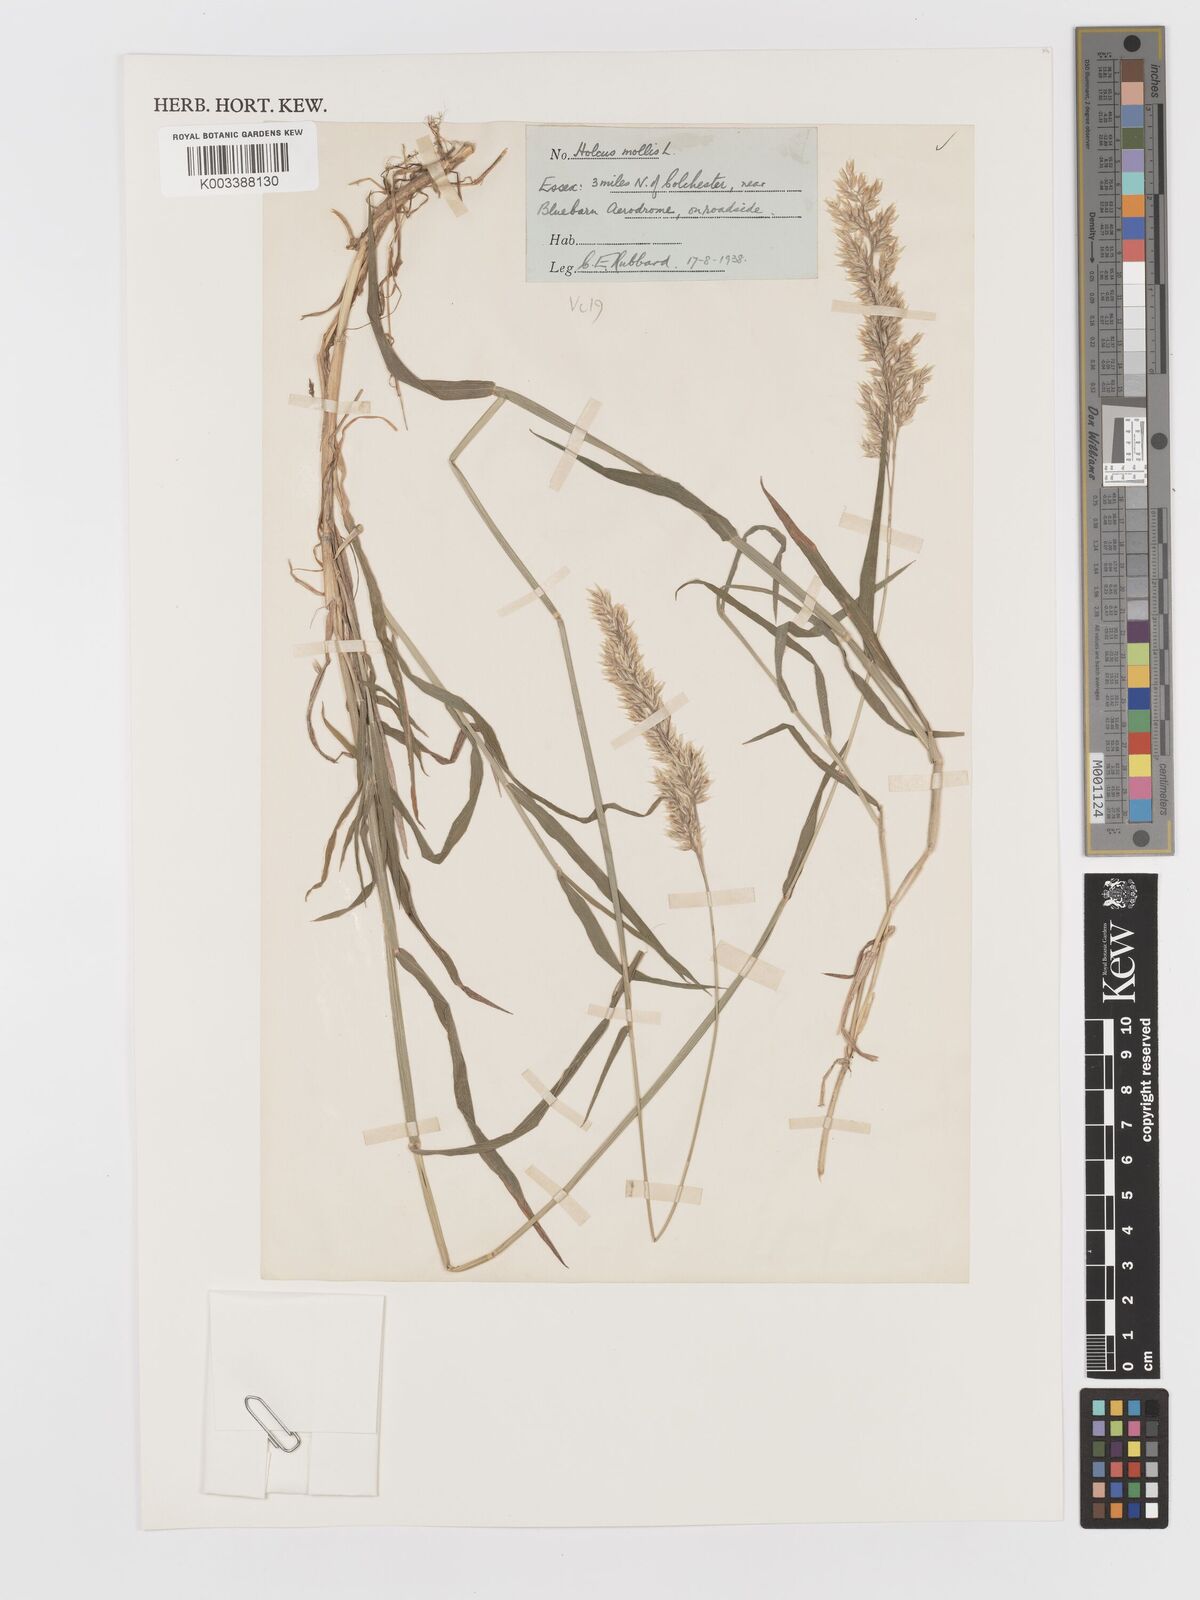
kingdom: Plantae
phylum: Tracheophyta
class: Liliopsida
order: Poales
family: Poaceae
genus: Holcus
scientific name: Holcus mollis
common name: Creeping velvetgrass
